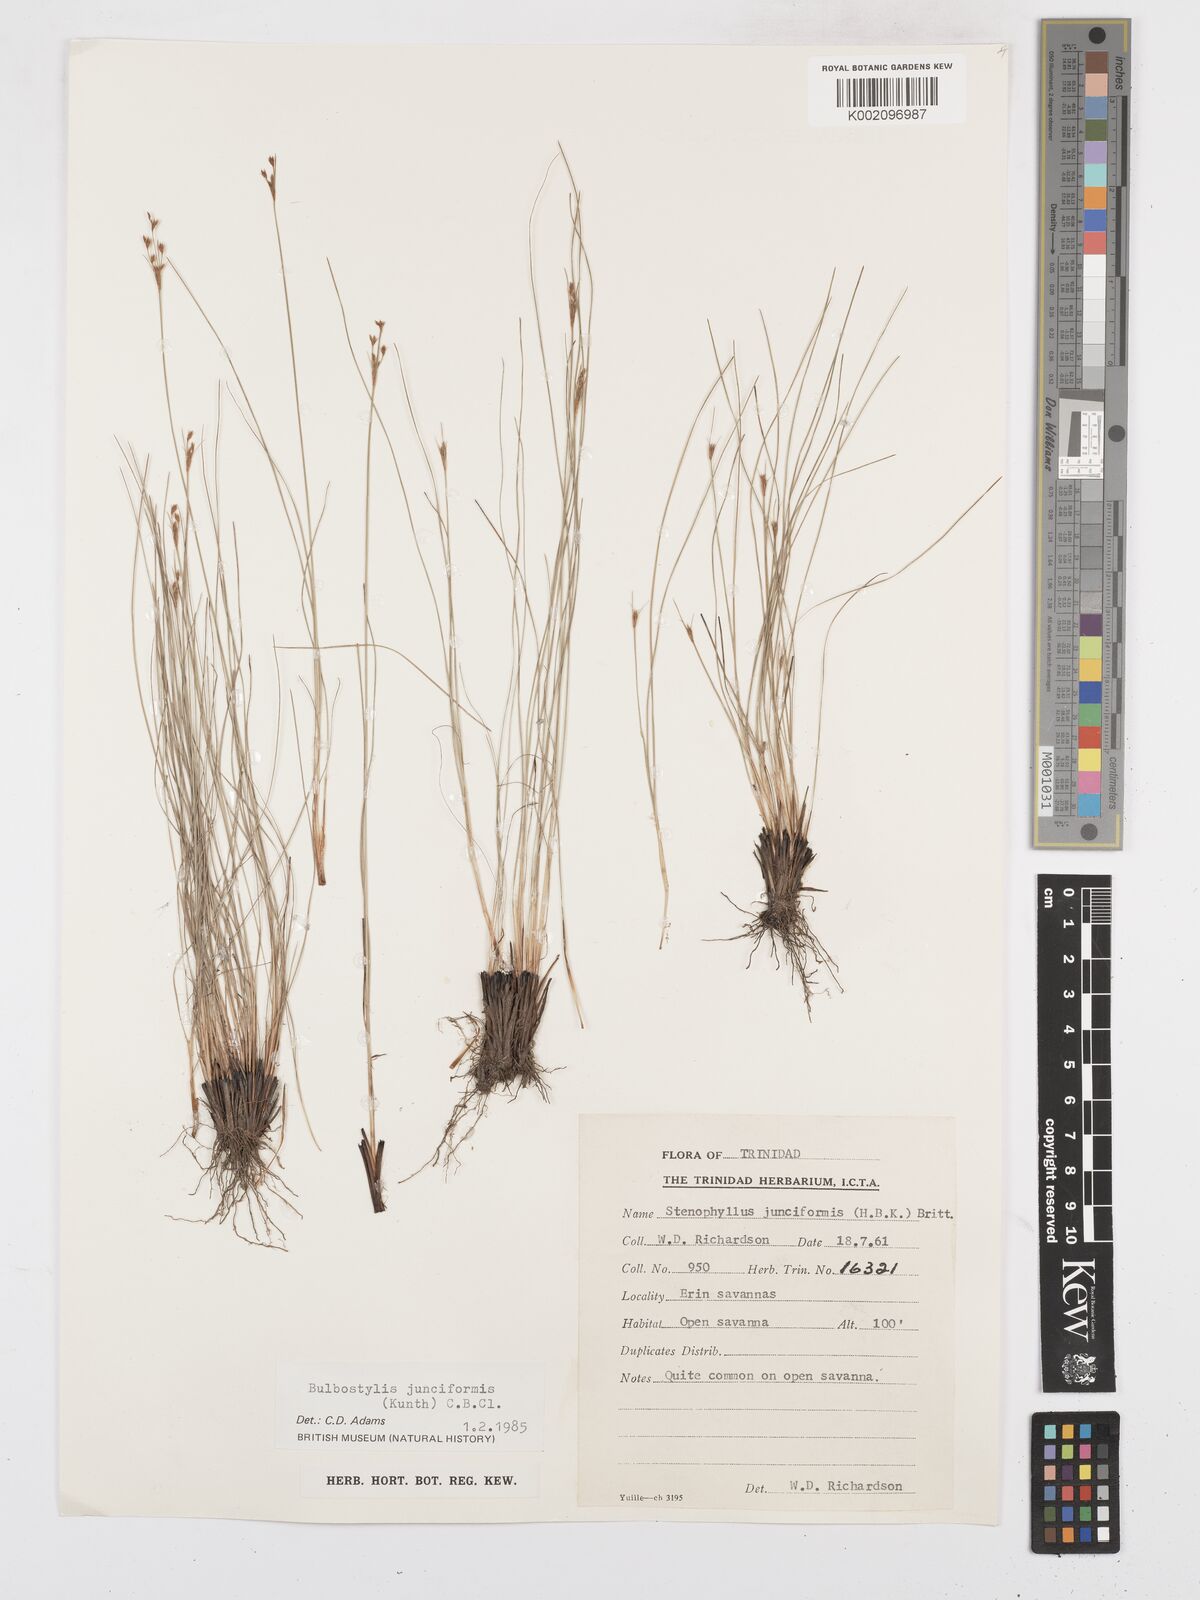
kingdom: Plantae
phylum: Tracheophyta
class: Liliopsida
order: Poales
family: Cyperaceae
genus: Bulbostylis
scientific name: Bulbostylis junciformis
